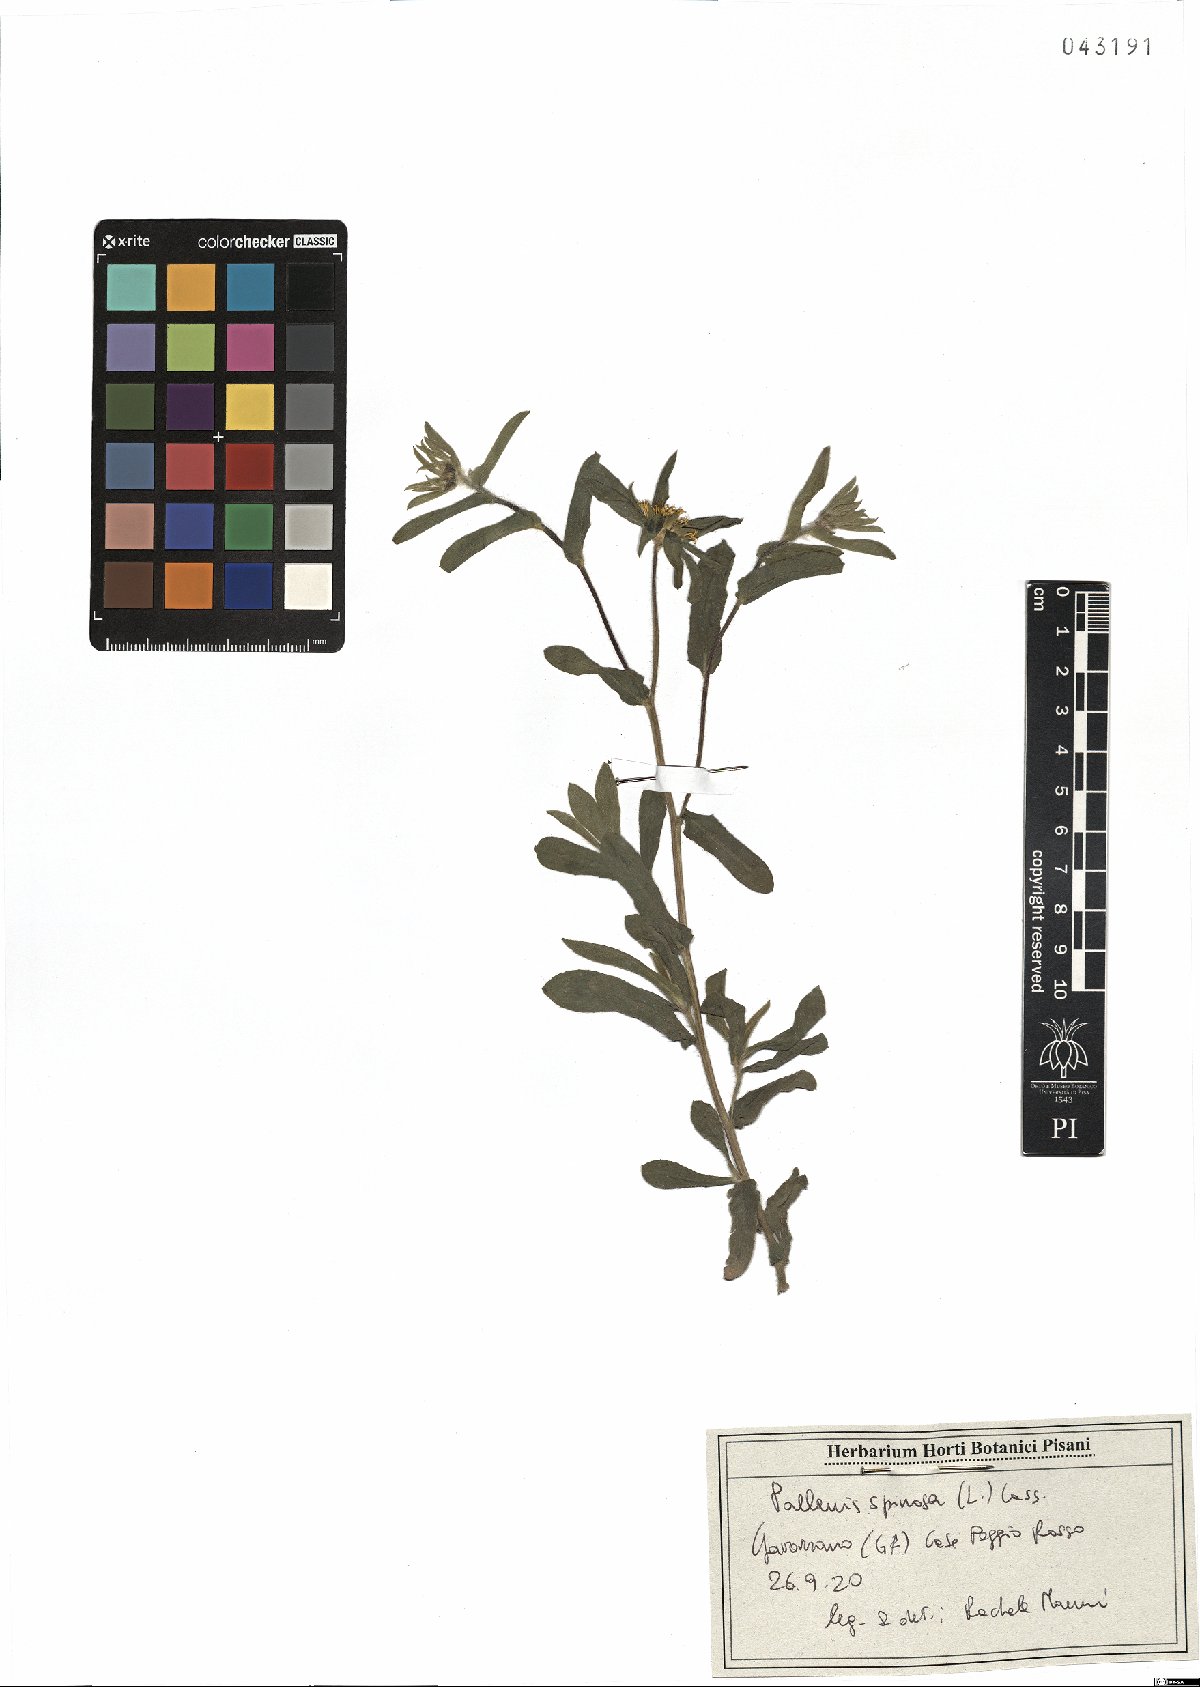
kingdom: Plantae
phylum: Tracheophyta
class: Magnoliopsida
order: Asterales
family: Asteraceae
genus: Pallenis
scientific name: Pallenis spinosa
